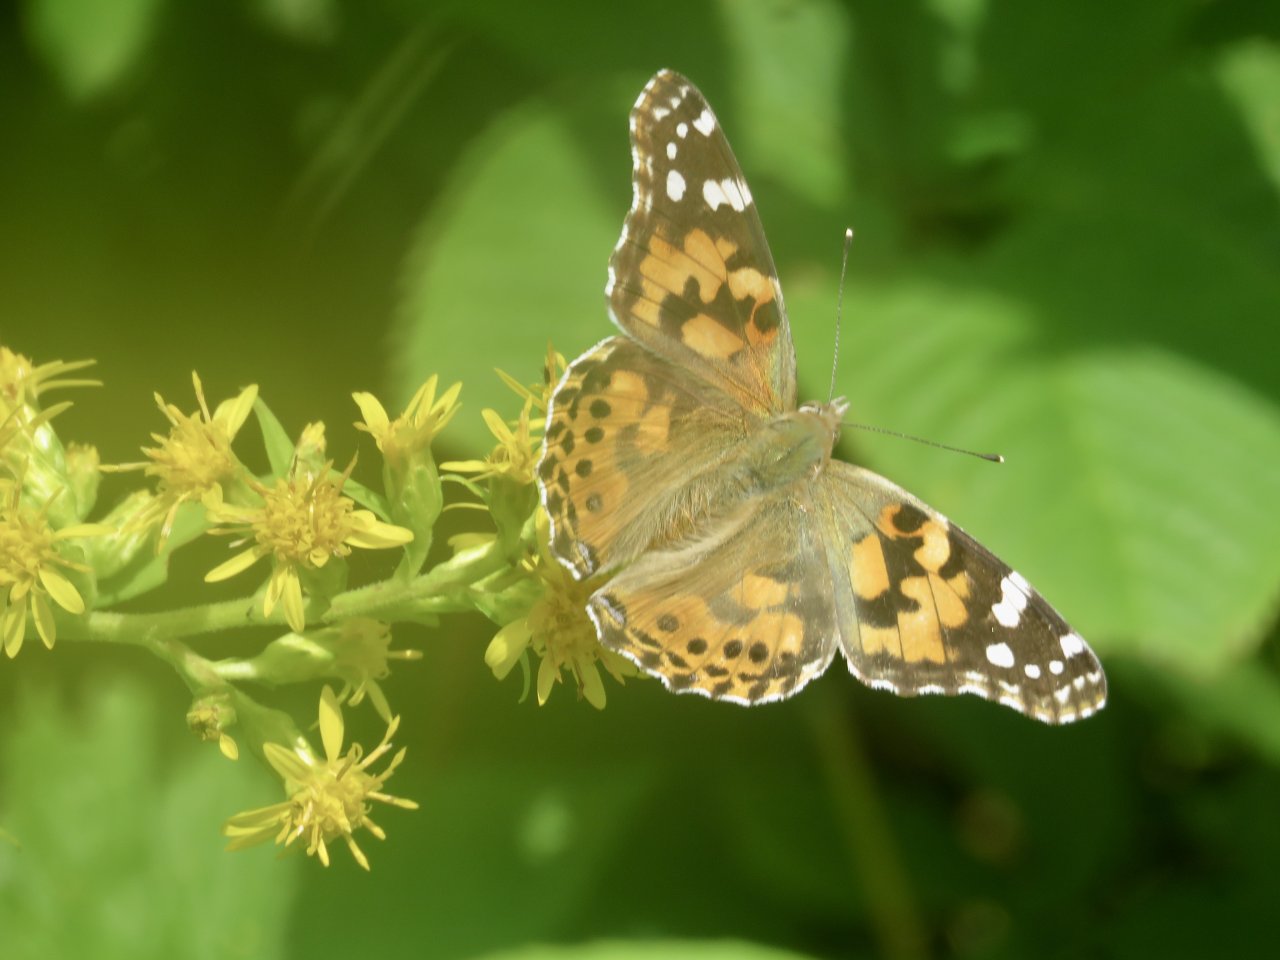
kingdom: Animalia
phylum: Arthropoda
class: Insecta
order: Lepidoptera
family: Nymphalidae
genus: Vanessa
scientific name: Vanessa cardui
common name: Painted Lady
